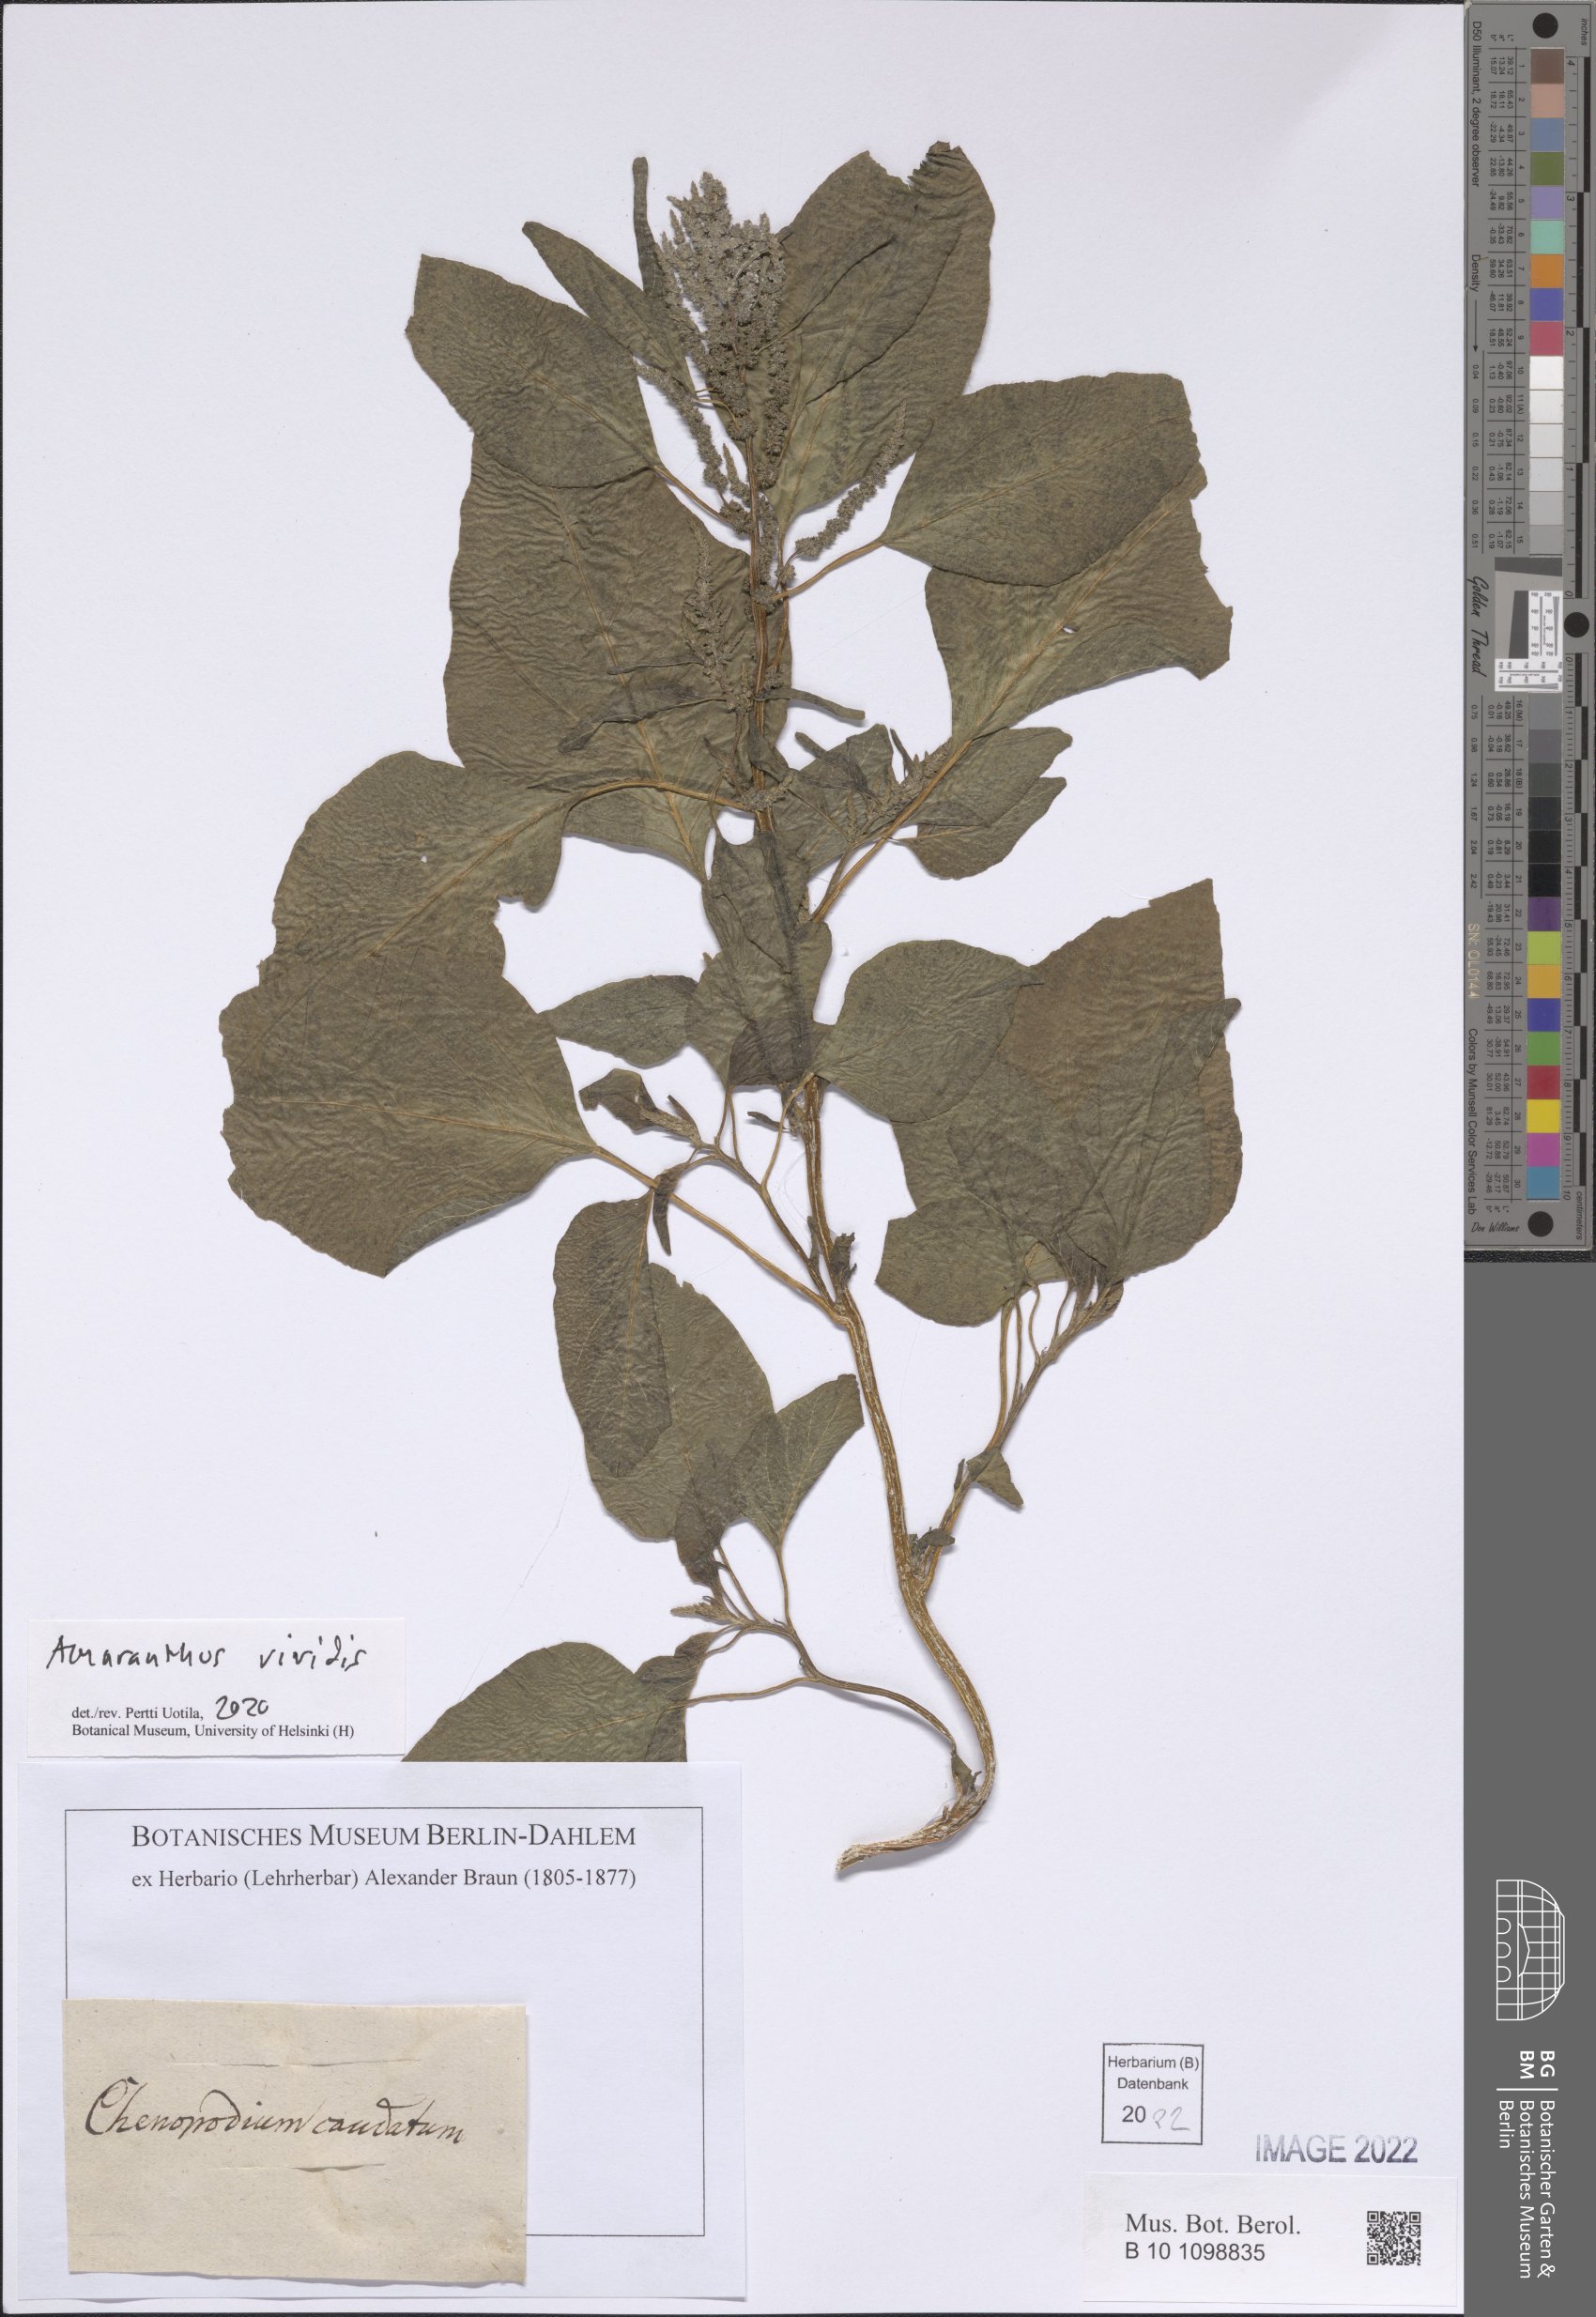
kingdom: Plantae
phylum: Tracheophyta
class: Magnoliopsida
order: Caryophyllales
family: Amaranthaceae
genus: Amaranthus
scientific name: Amaranthus viridis
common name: Slender amaranth
